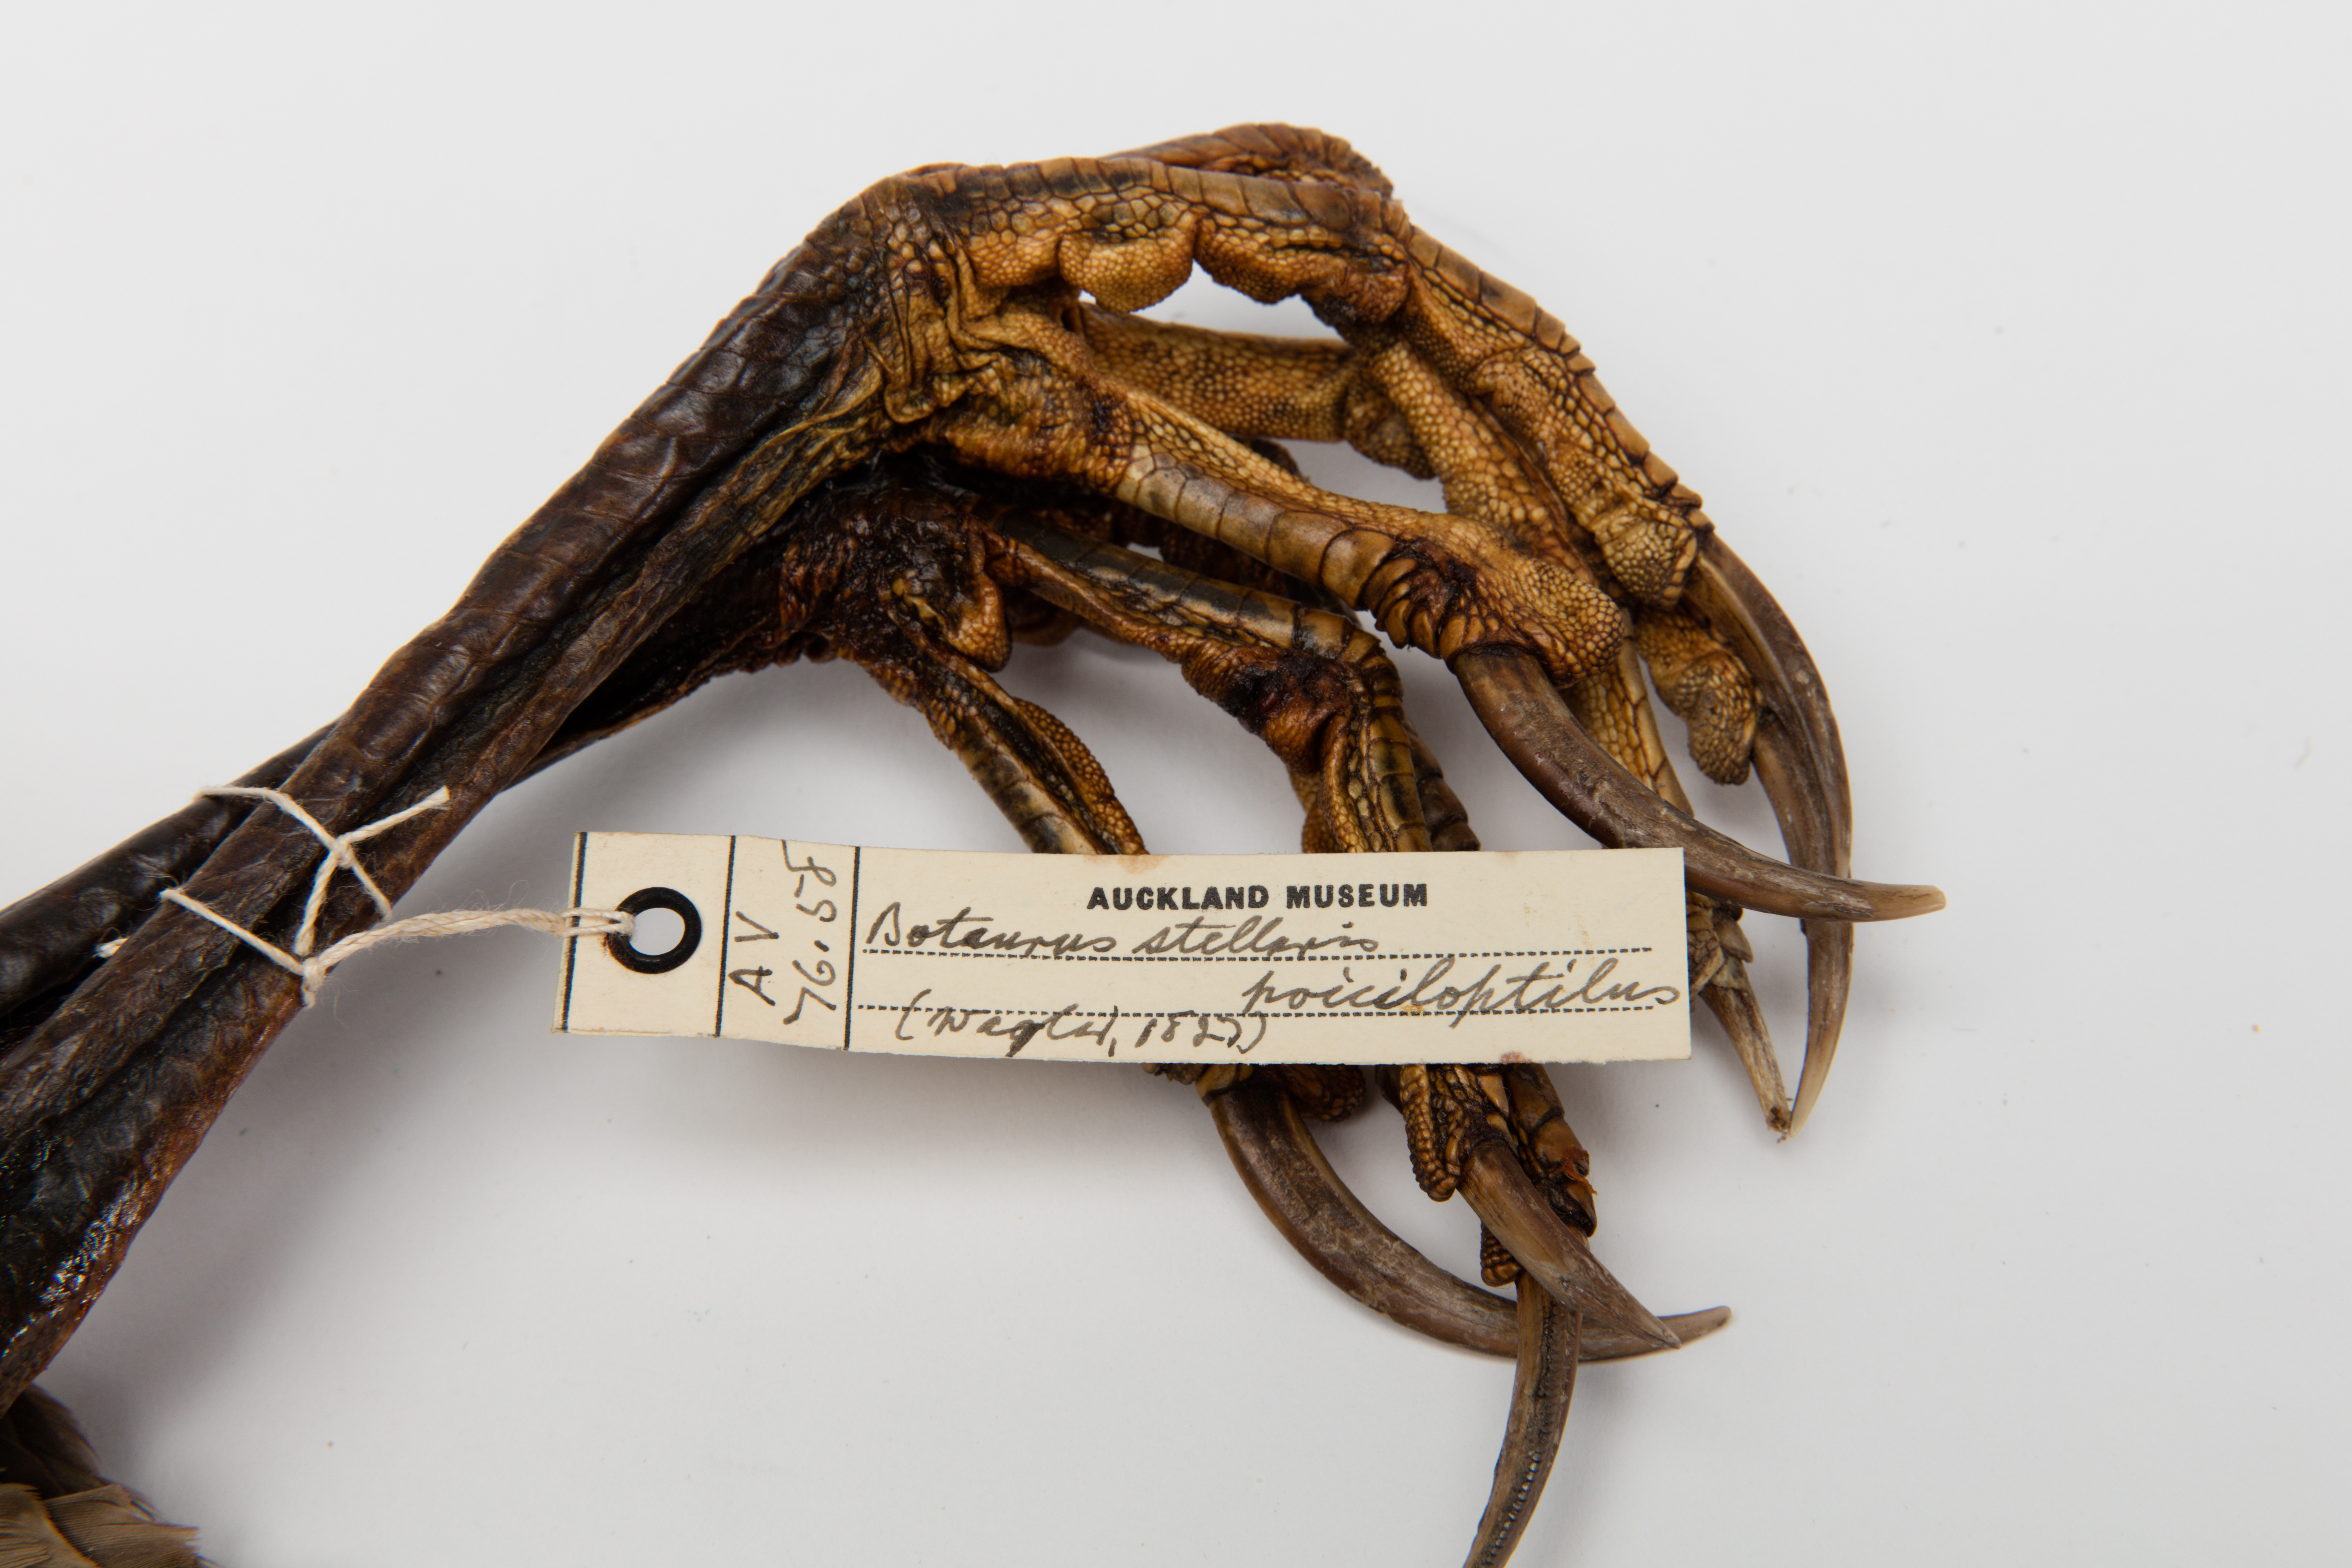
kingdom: Animalia
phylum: Chordata
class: Aves
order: Pelecaniformes
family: Ardeidae
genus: Botaurus
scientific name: Botaurus poiciloptilus
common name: Australasian bittern
